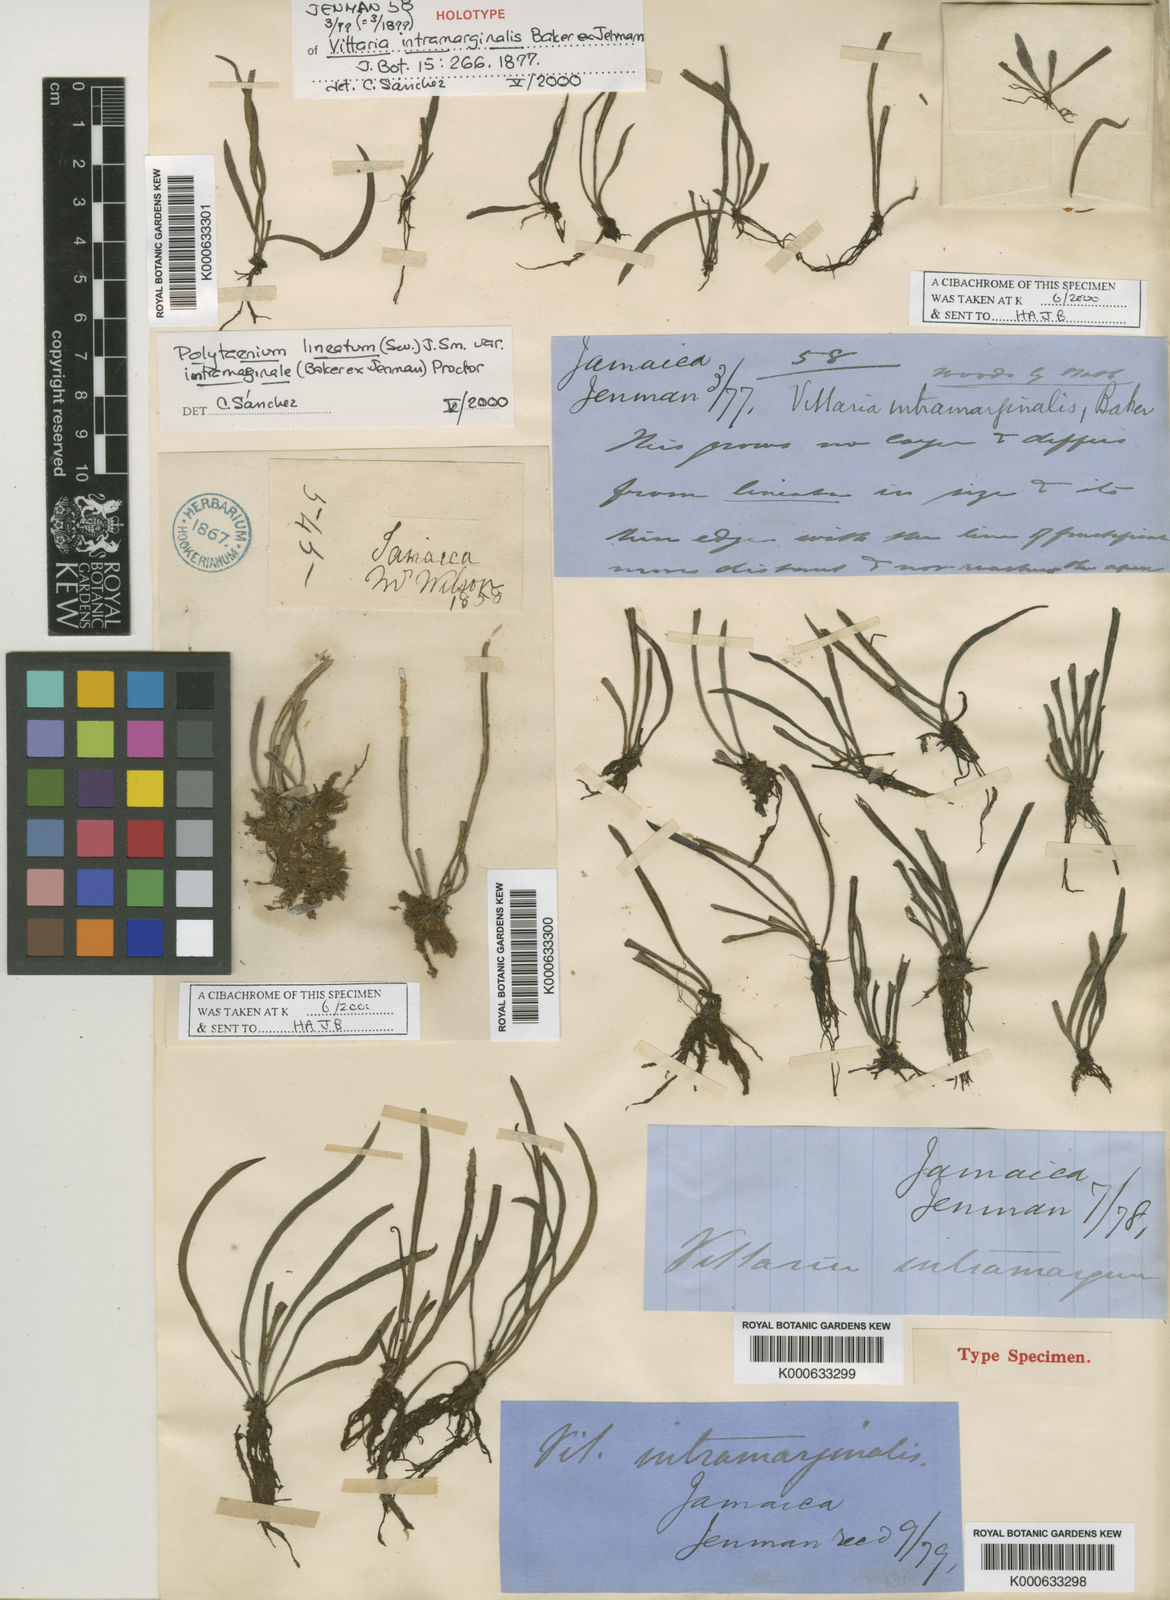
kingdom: Plantae
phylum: Tracheophyta
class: Polypodiopsida
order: Polypodiales
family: Pteridaceae
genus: Vittaria
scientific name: Vittaria lineata
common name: Shoestring fern
